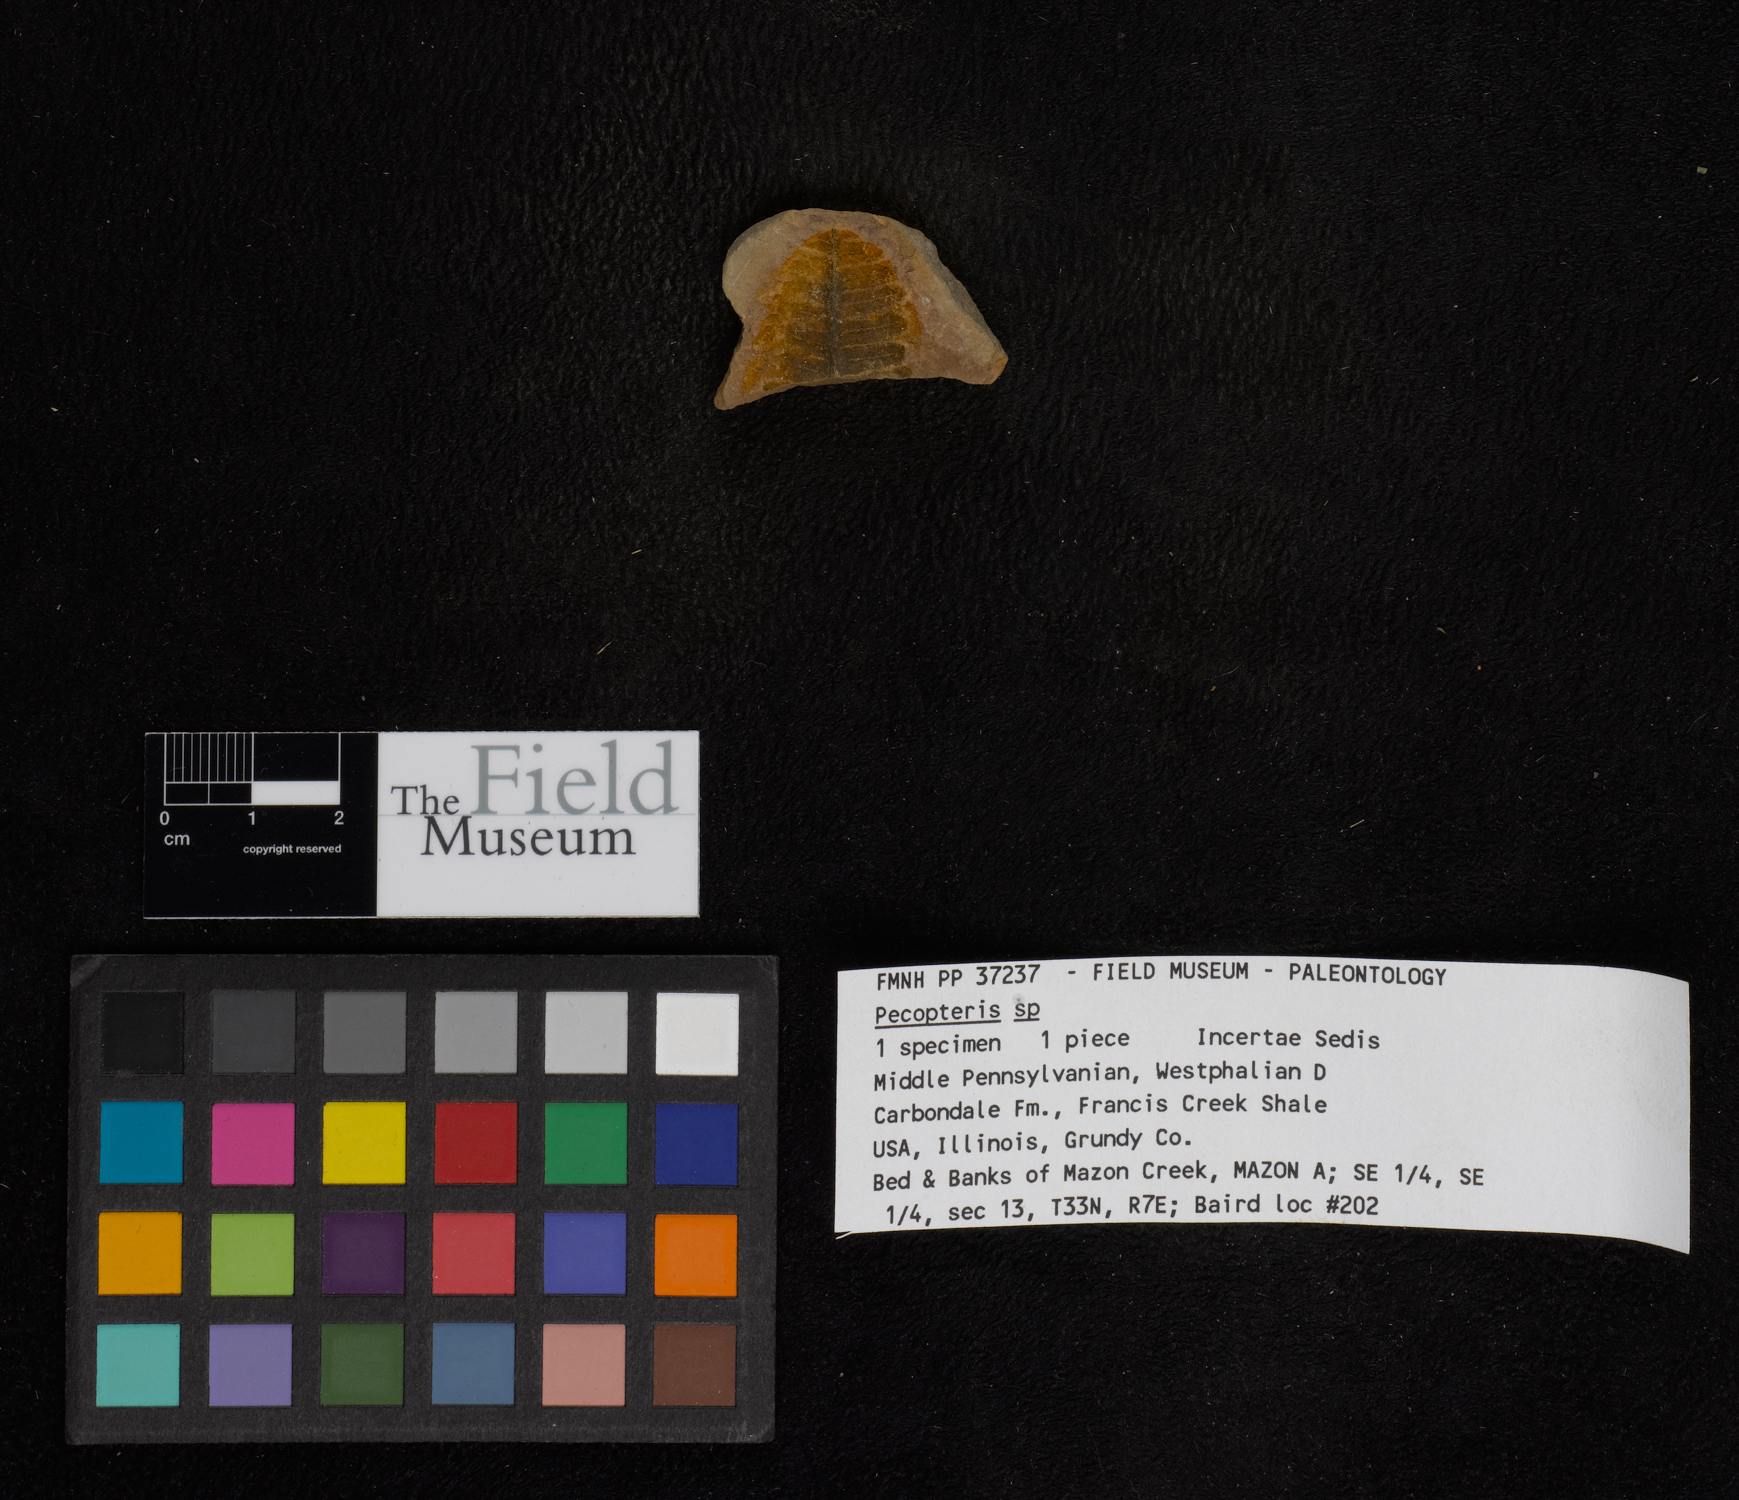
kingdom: Plantae
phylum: Tracheophyta
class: Polypodiopsida
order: Marattiales
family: Asterothecaceae
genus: Pecopteris
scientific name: Pecopteris
